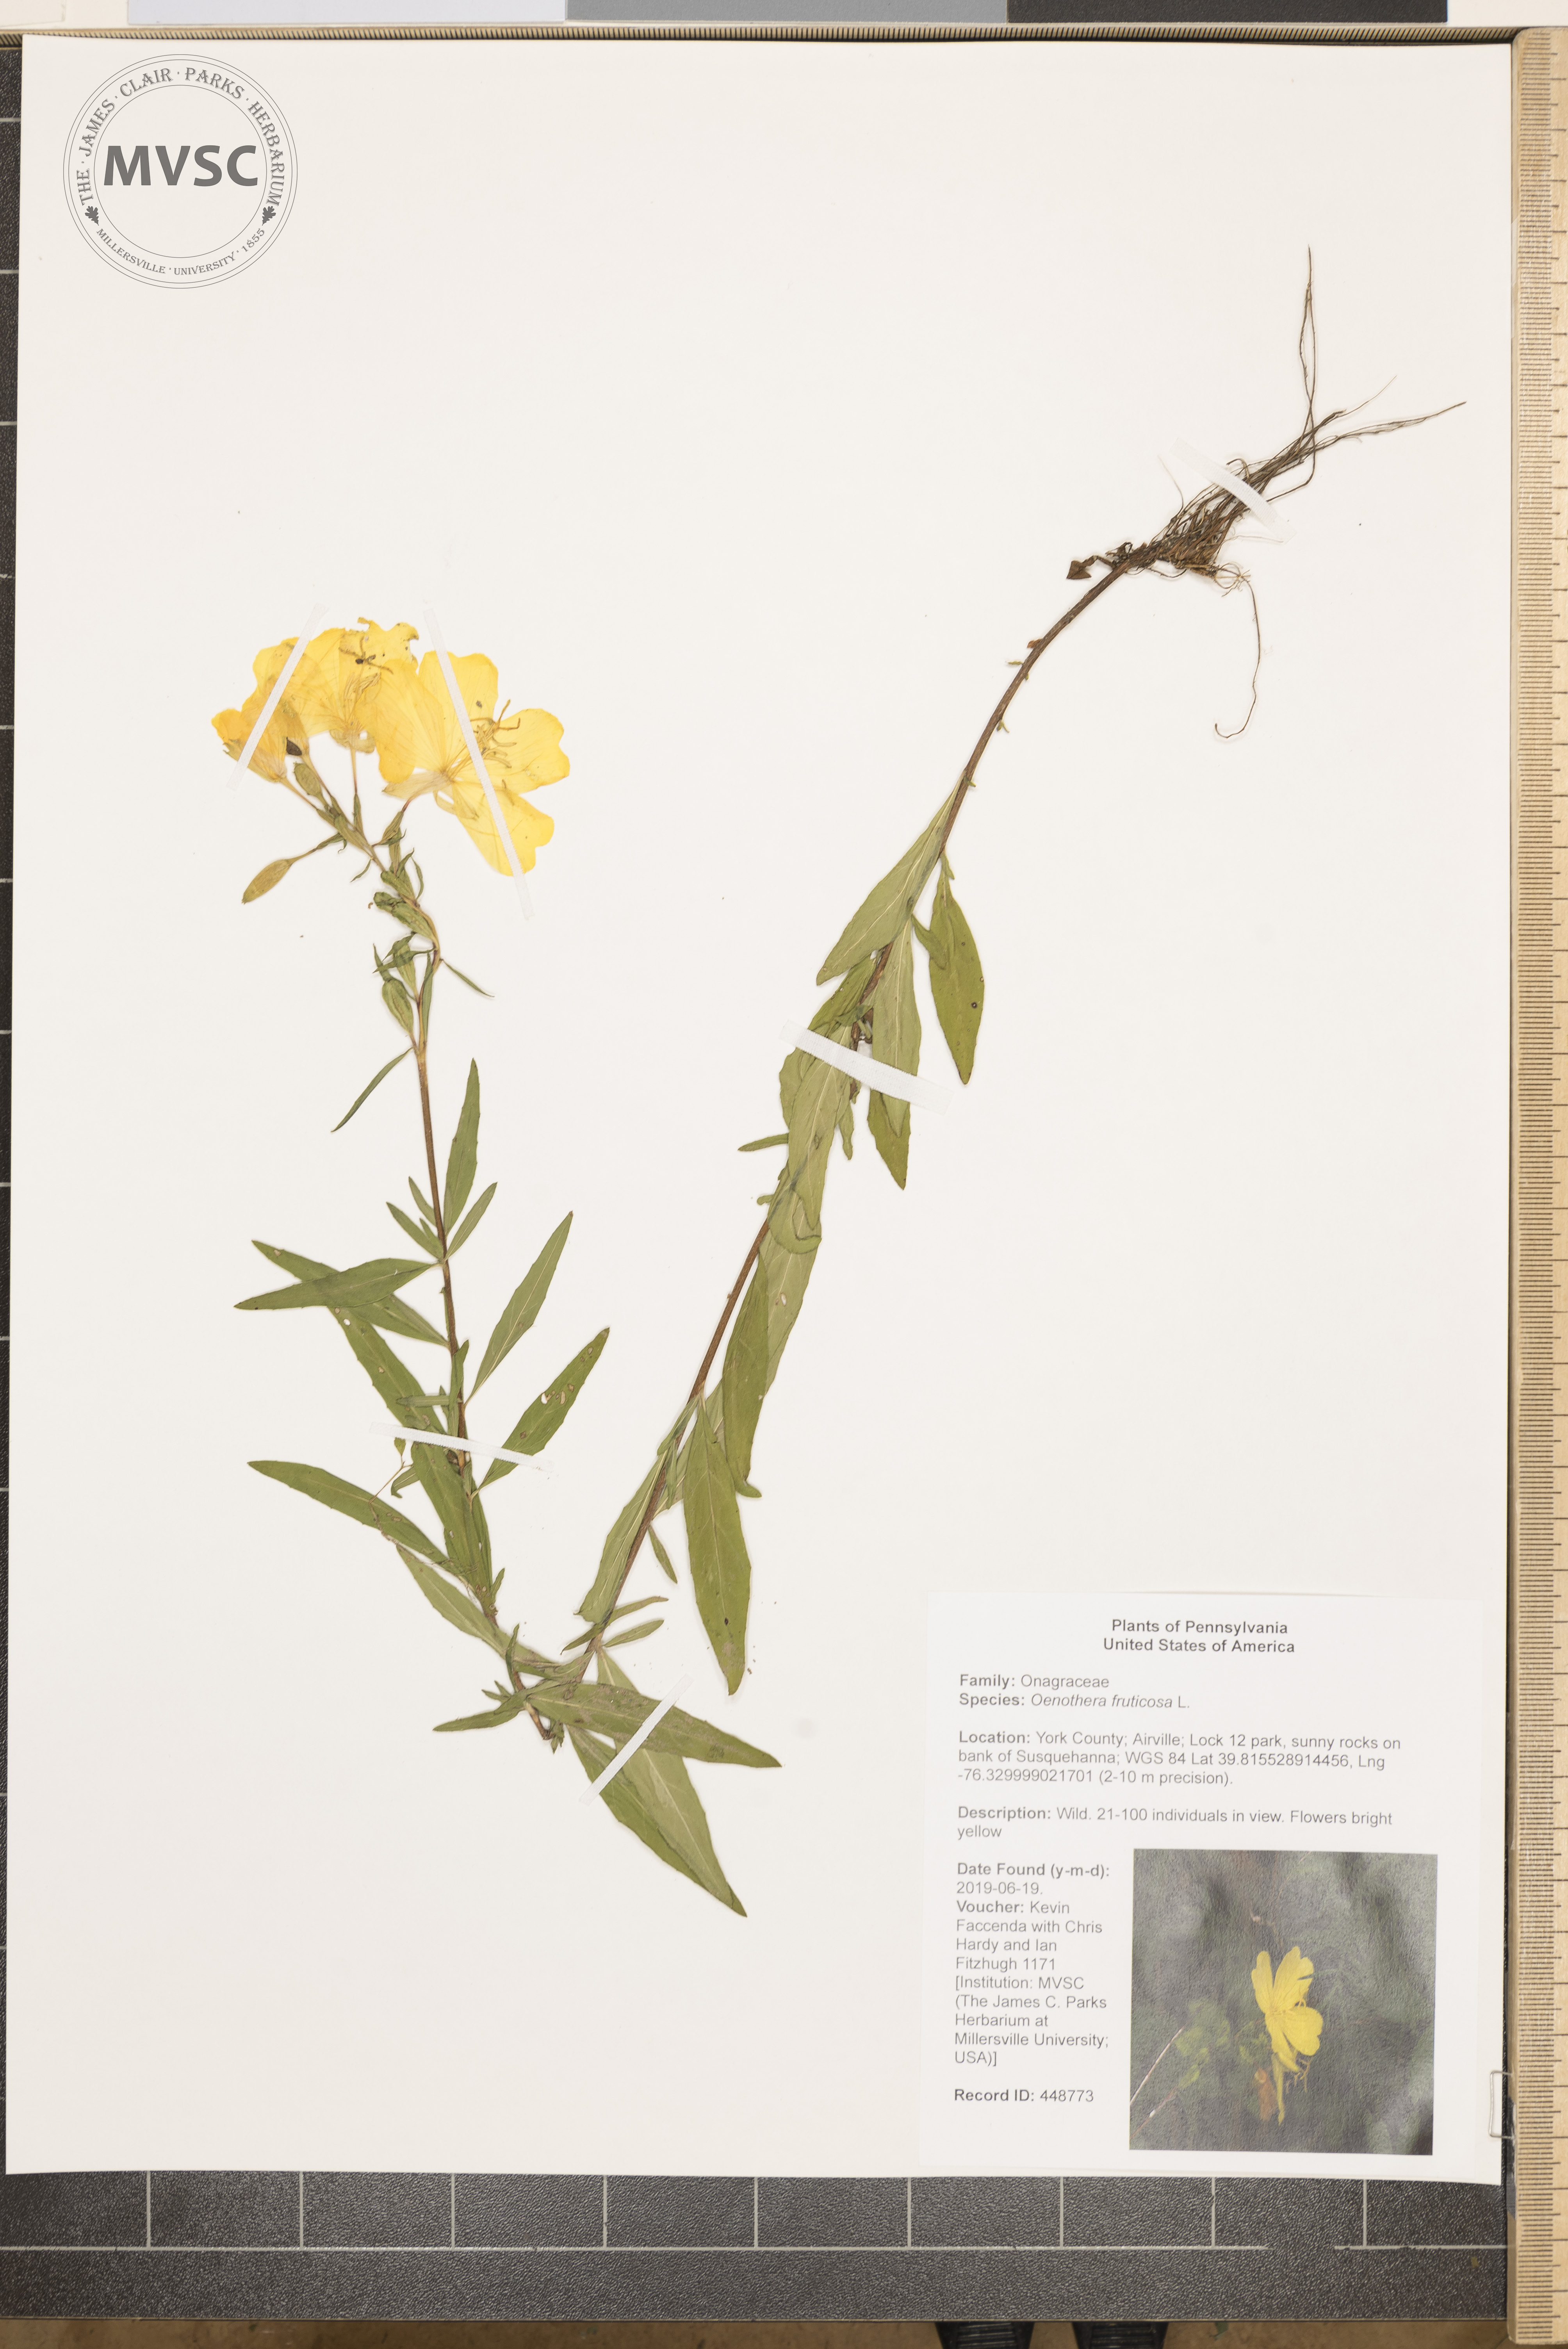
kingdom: Plantae
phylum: Tracheophyta
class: Magnoliopsida
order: Myrtales
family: Onagraceae
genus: Oenothera
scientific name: Oenothera fruticosa
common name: Southern sundrops
